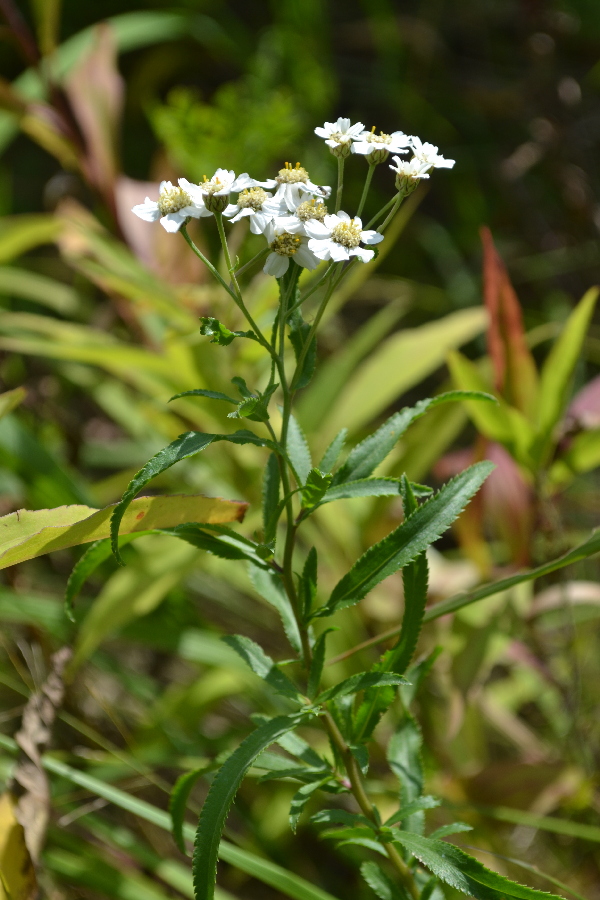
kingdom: Plantae
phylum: Tracheophyta
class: Magnoliopsida
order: Asterales
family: Asteraceae
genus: Achillea
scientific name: Achillea ptarmica
